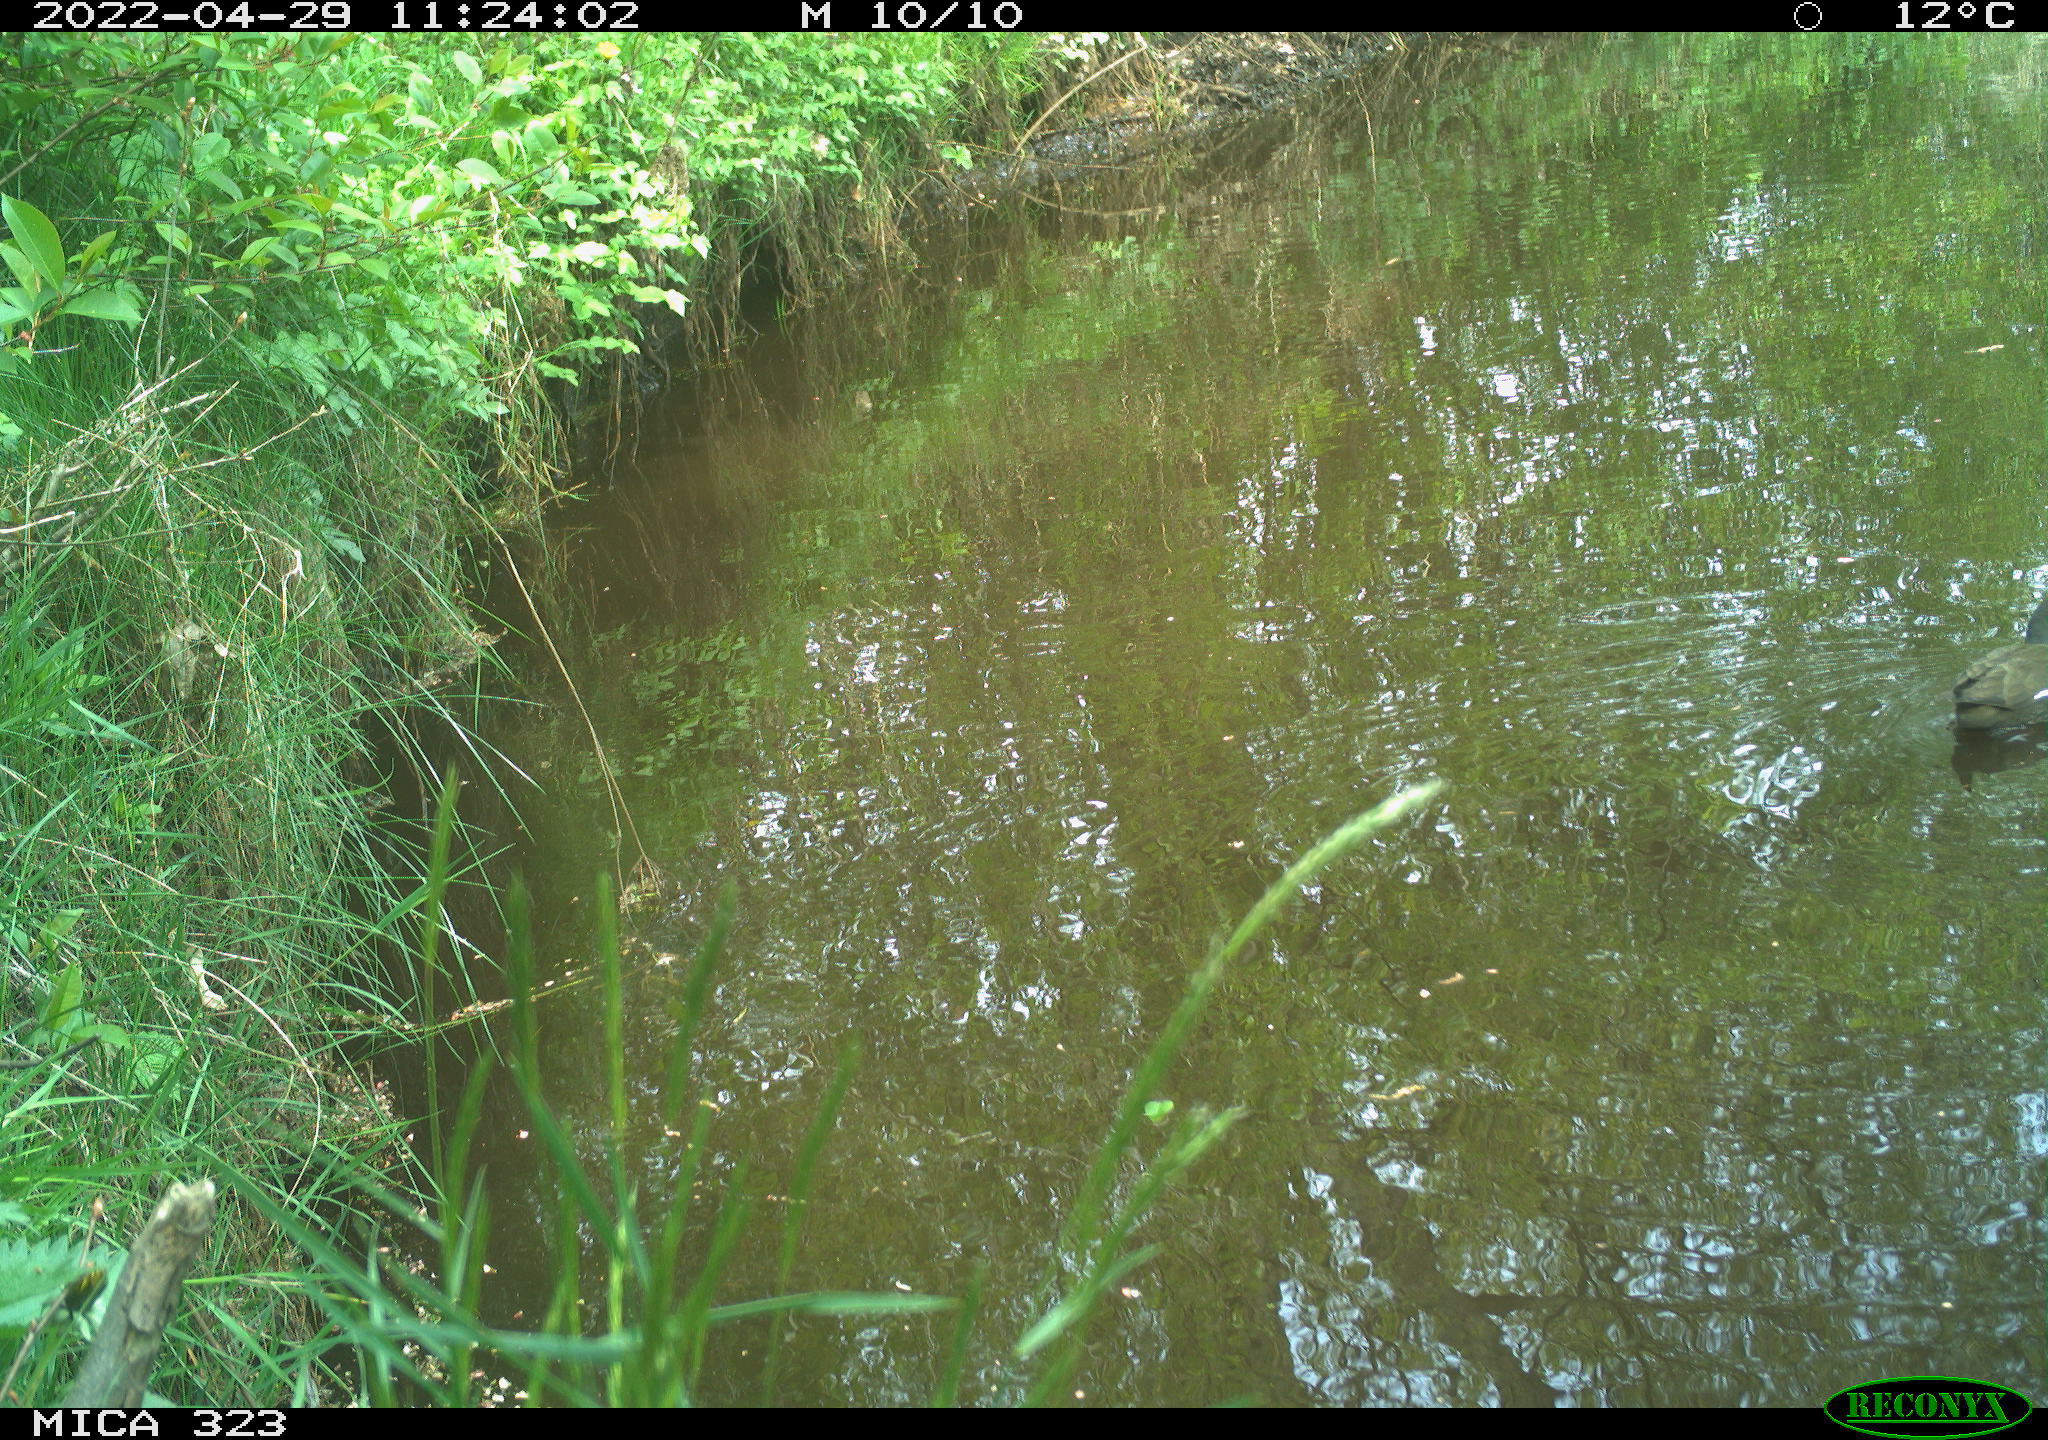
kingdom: Animalia
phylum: Chordata
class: Aves
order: Gruiformes
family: Rallidae
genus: Gallinula
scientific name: Gallinula chloropus
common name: Common moorhen
